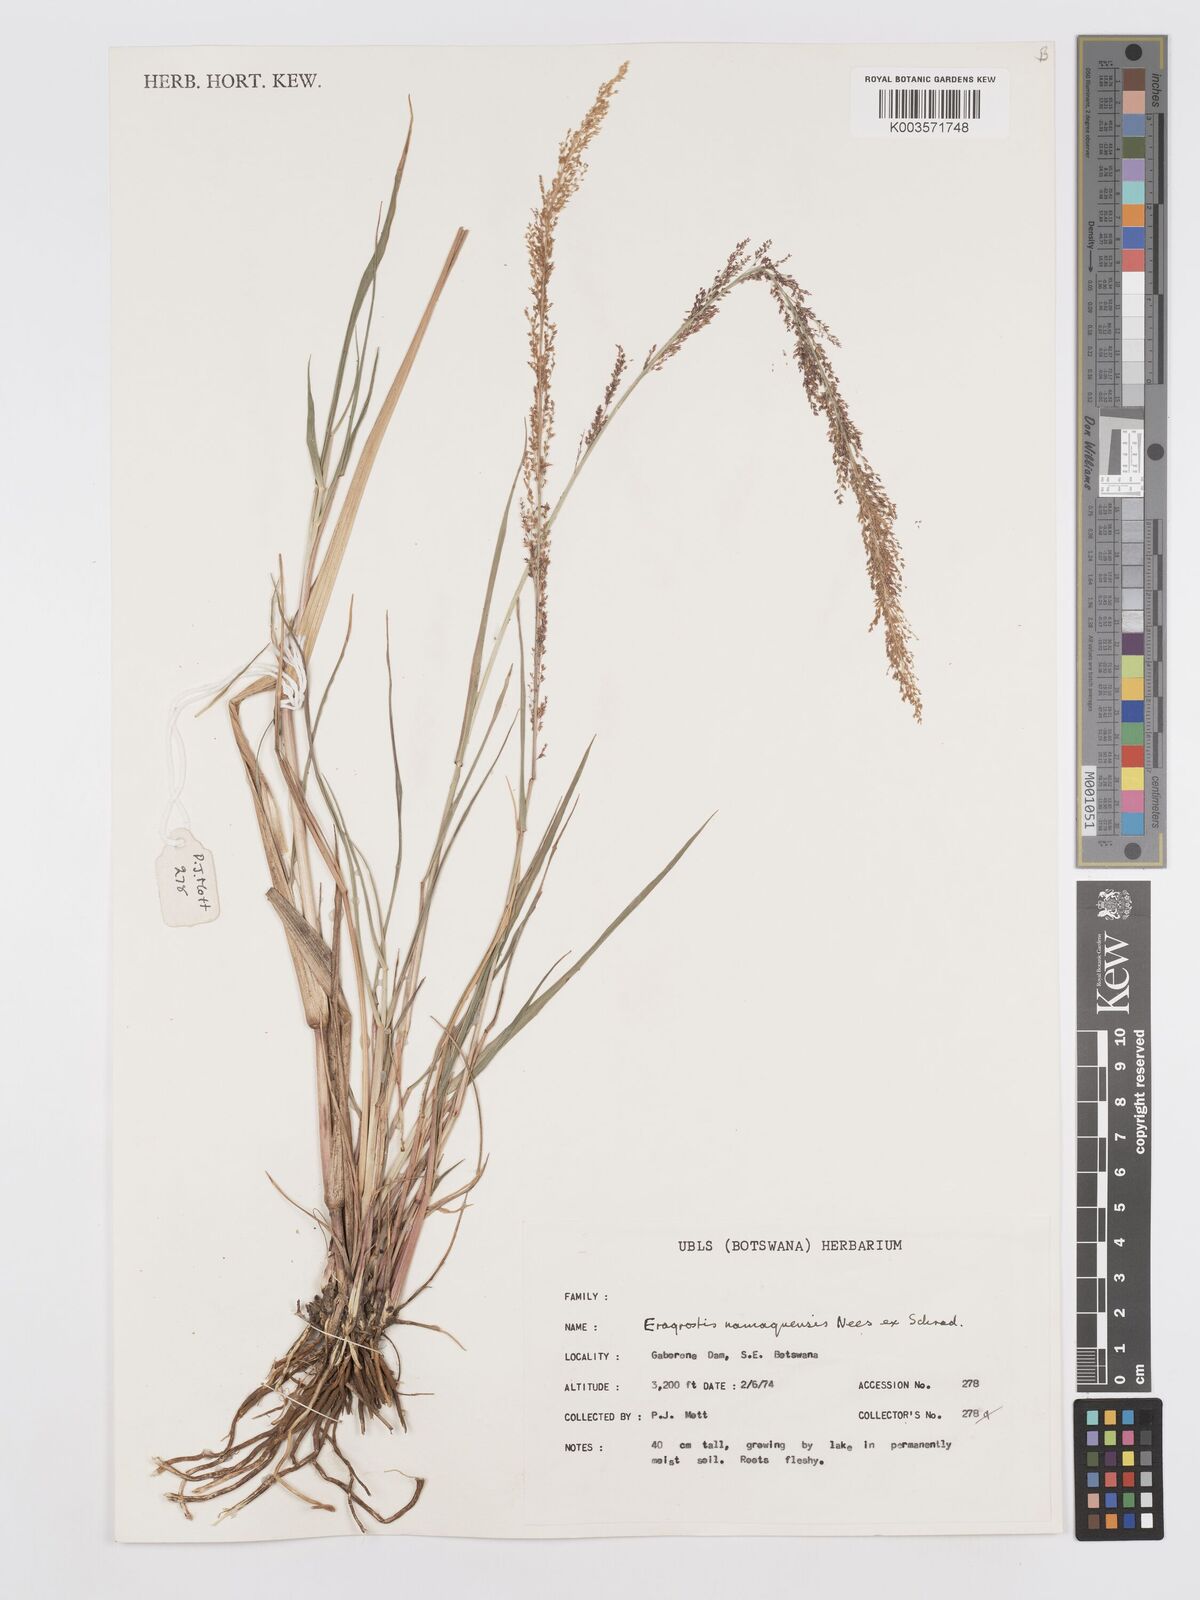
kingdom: Plantae
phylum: Tracheophyta
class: Liliopsida
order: Poales
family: Poaceae
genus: Eragrostis
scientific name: Eragrostis japonica
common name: Pond lovegrass
